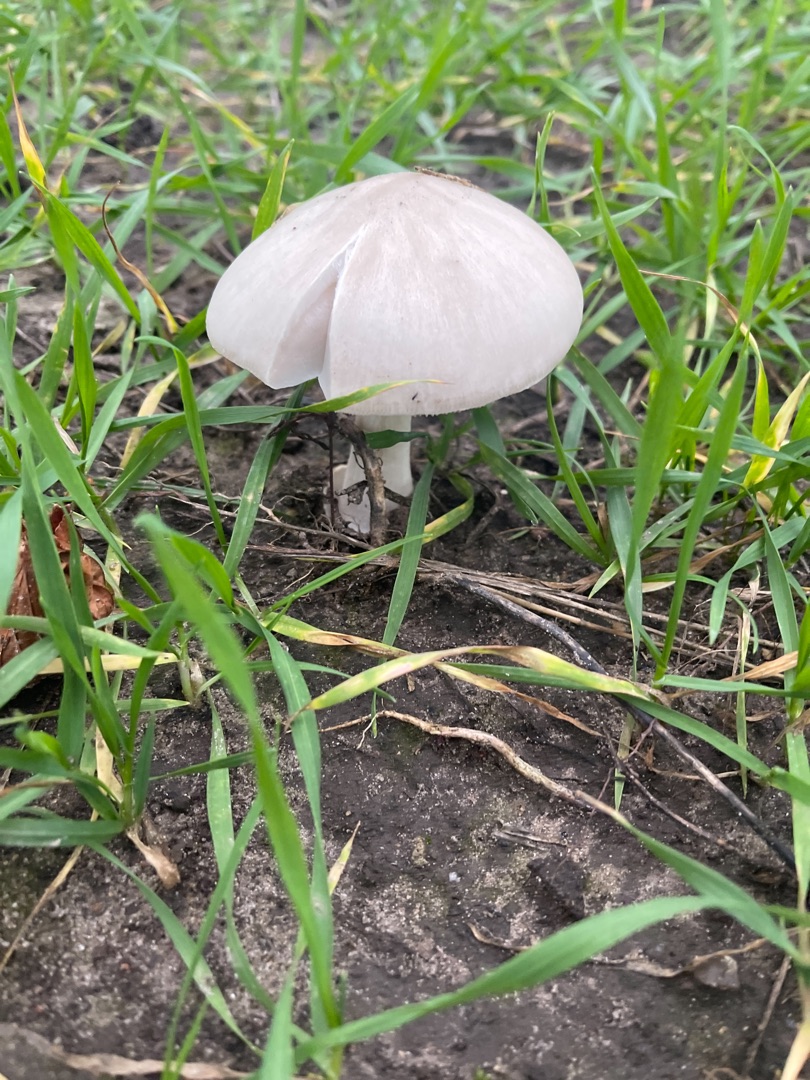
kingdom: Fungi
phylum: Basidiomycota
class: Agaricomycetes
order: Agaricales
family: Pluteaceae
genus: Volvopluteus
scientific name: Volvopluteus gloiocephalus
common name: Høj posesvamp
